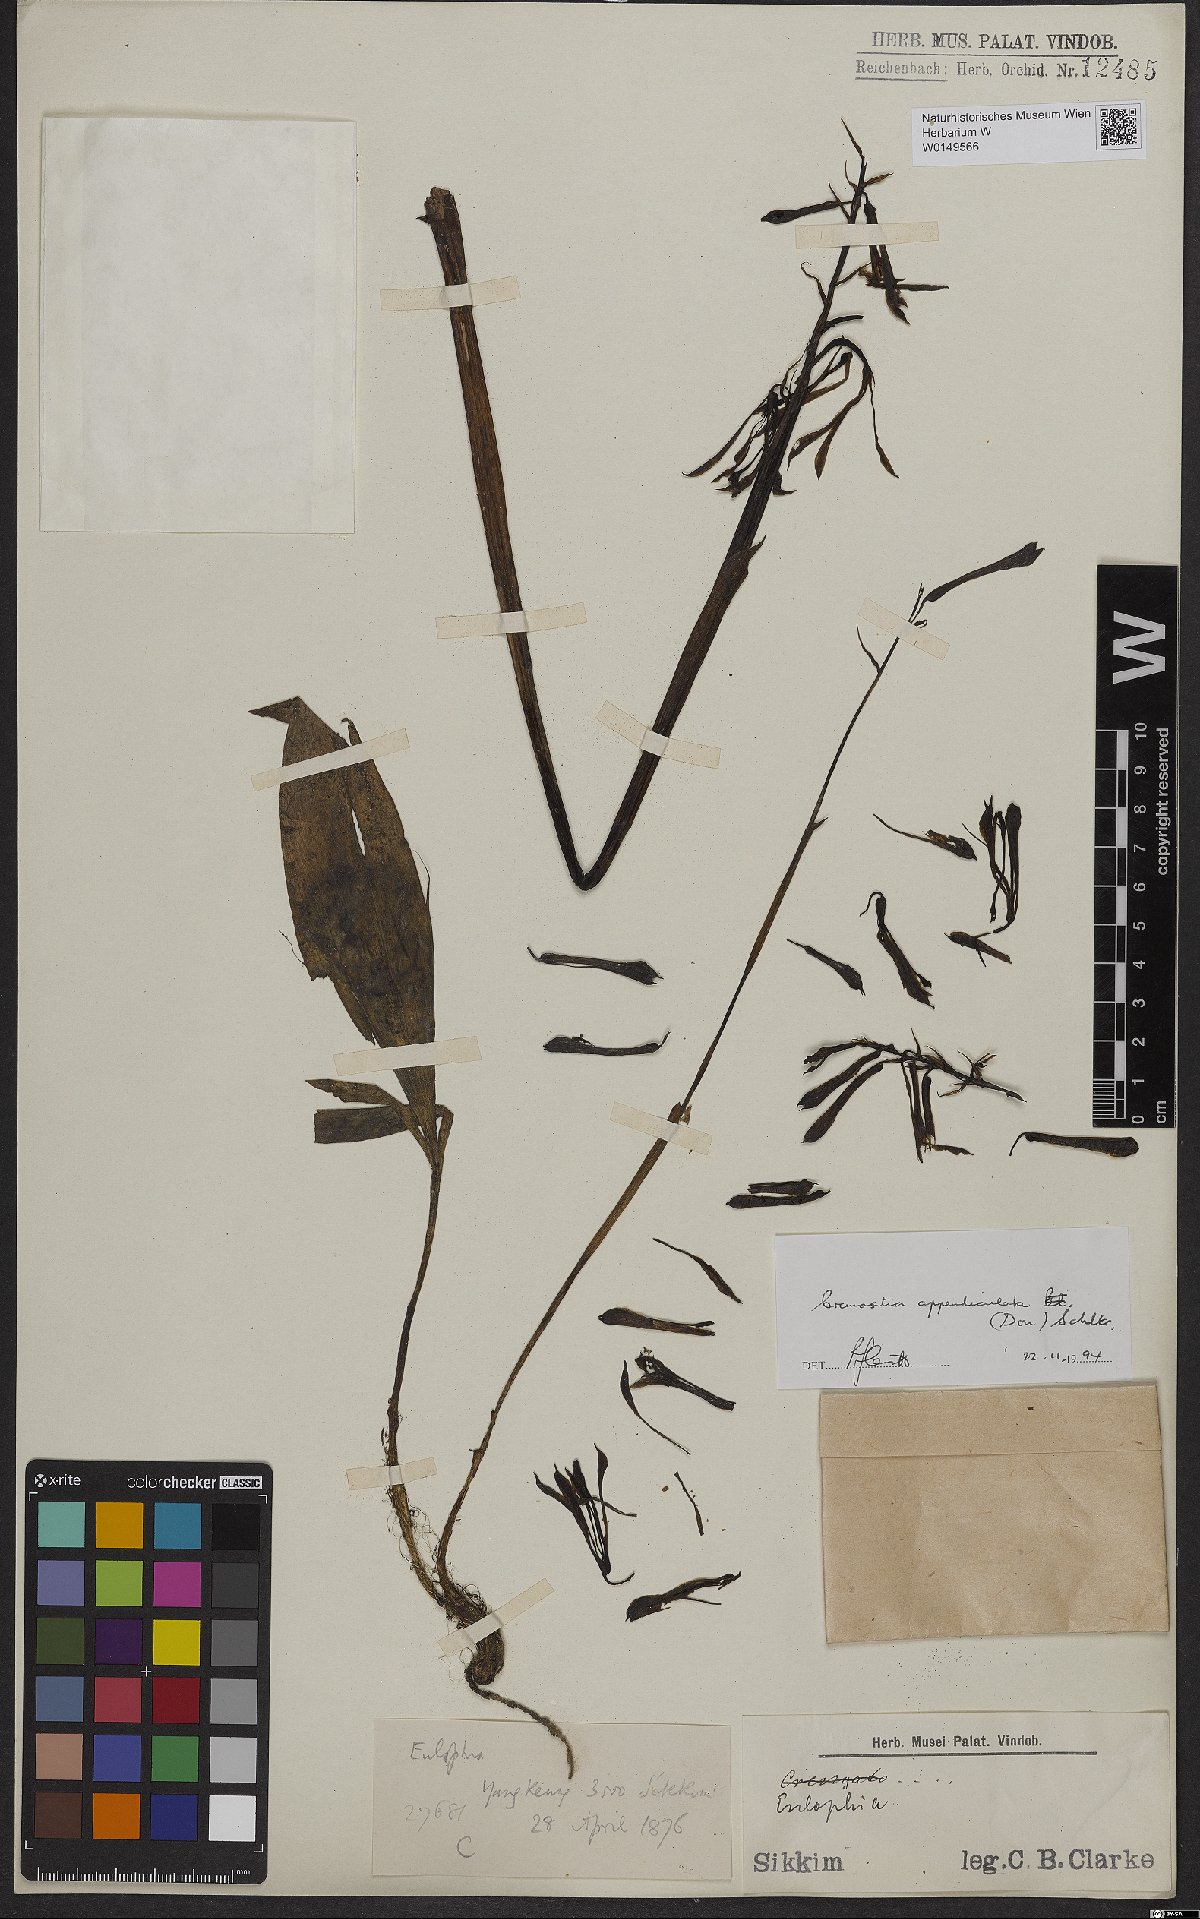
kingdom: Plantae
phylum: Tracheophyta
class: Liliopsida
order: Asparagales
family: Orchidaceae
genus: Cremastra
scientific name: Cremastra appendiculata
